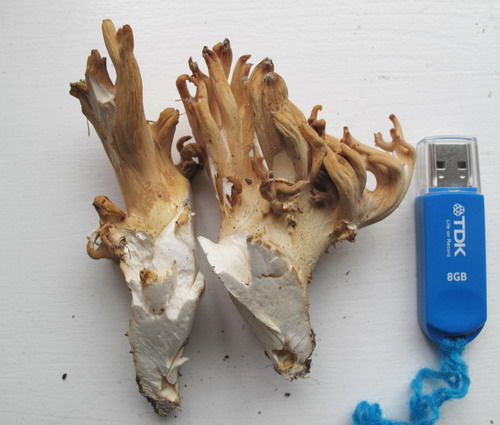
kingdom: Fungi
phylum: Basidiomycota
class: Agaricomycetes
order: Gomphales
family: Gomphaceae
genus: Ramaria
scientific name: Ramaria
